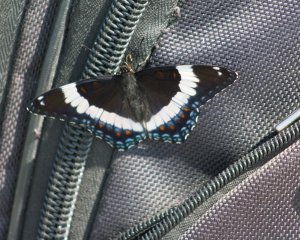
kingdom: Animalia
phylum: Arthropoda
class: Insecta
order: Lepidoptera
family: Nymphalidae
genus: Limenitis
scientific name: Limenitis arthemis
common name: Red-spotted Admiral
